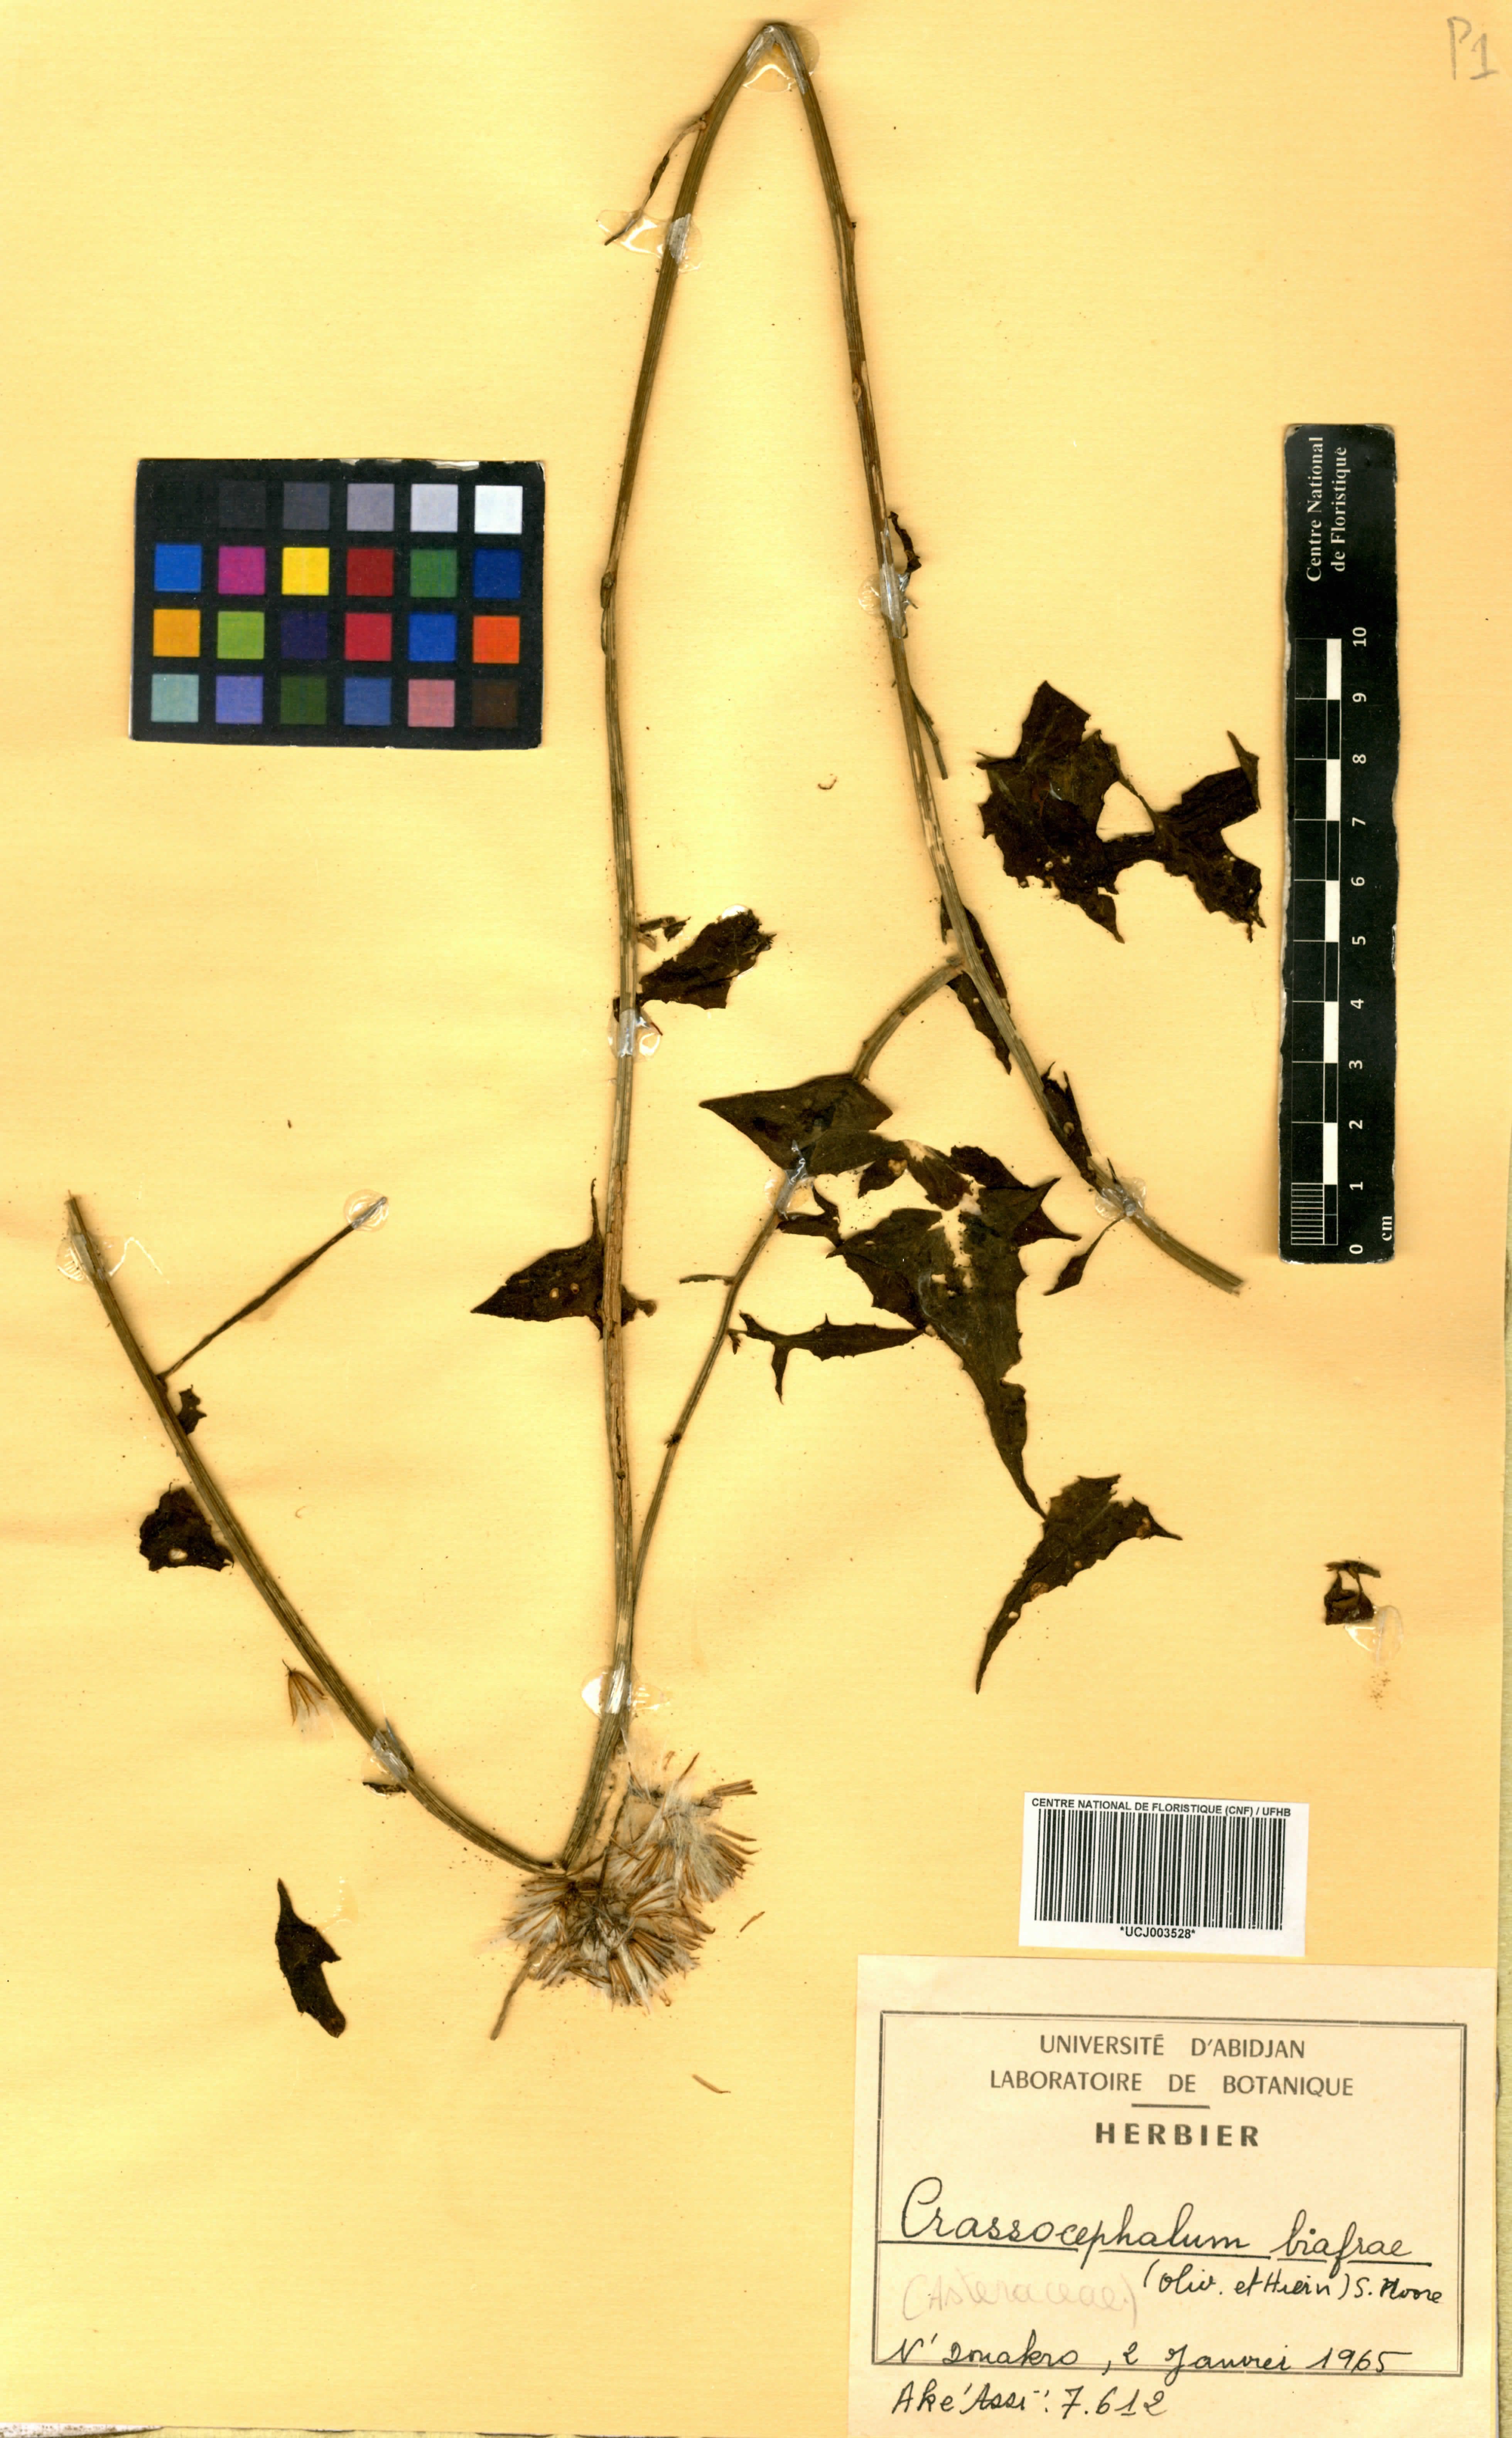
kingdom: Plantae
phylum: Tracheophyta
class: Magnoliopsida
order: Asterales
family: Asteraceae
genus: Solanecio
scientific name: Solanecio biafrae
